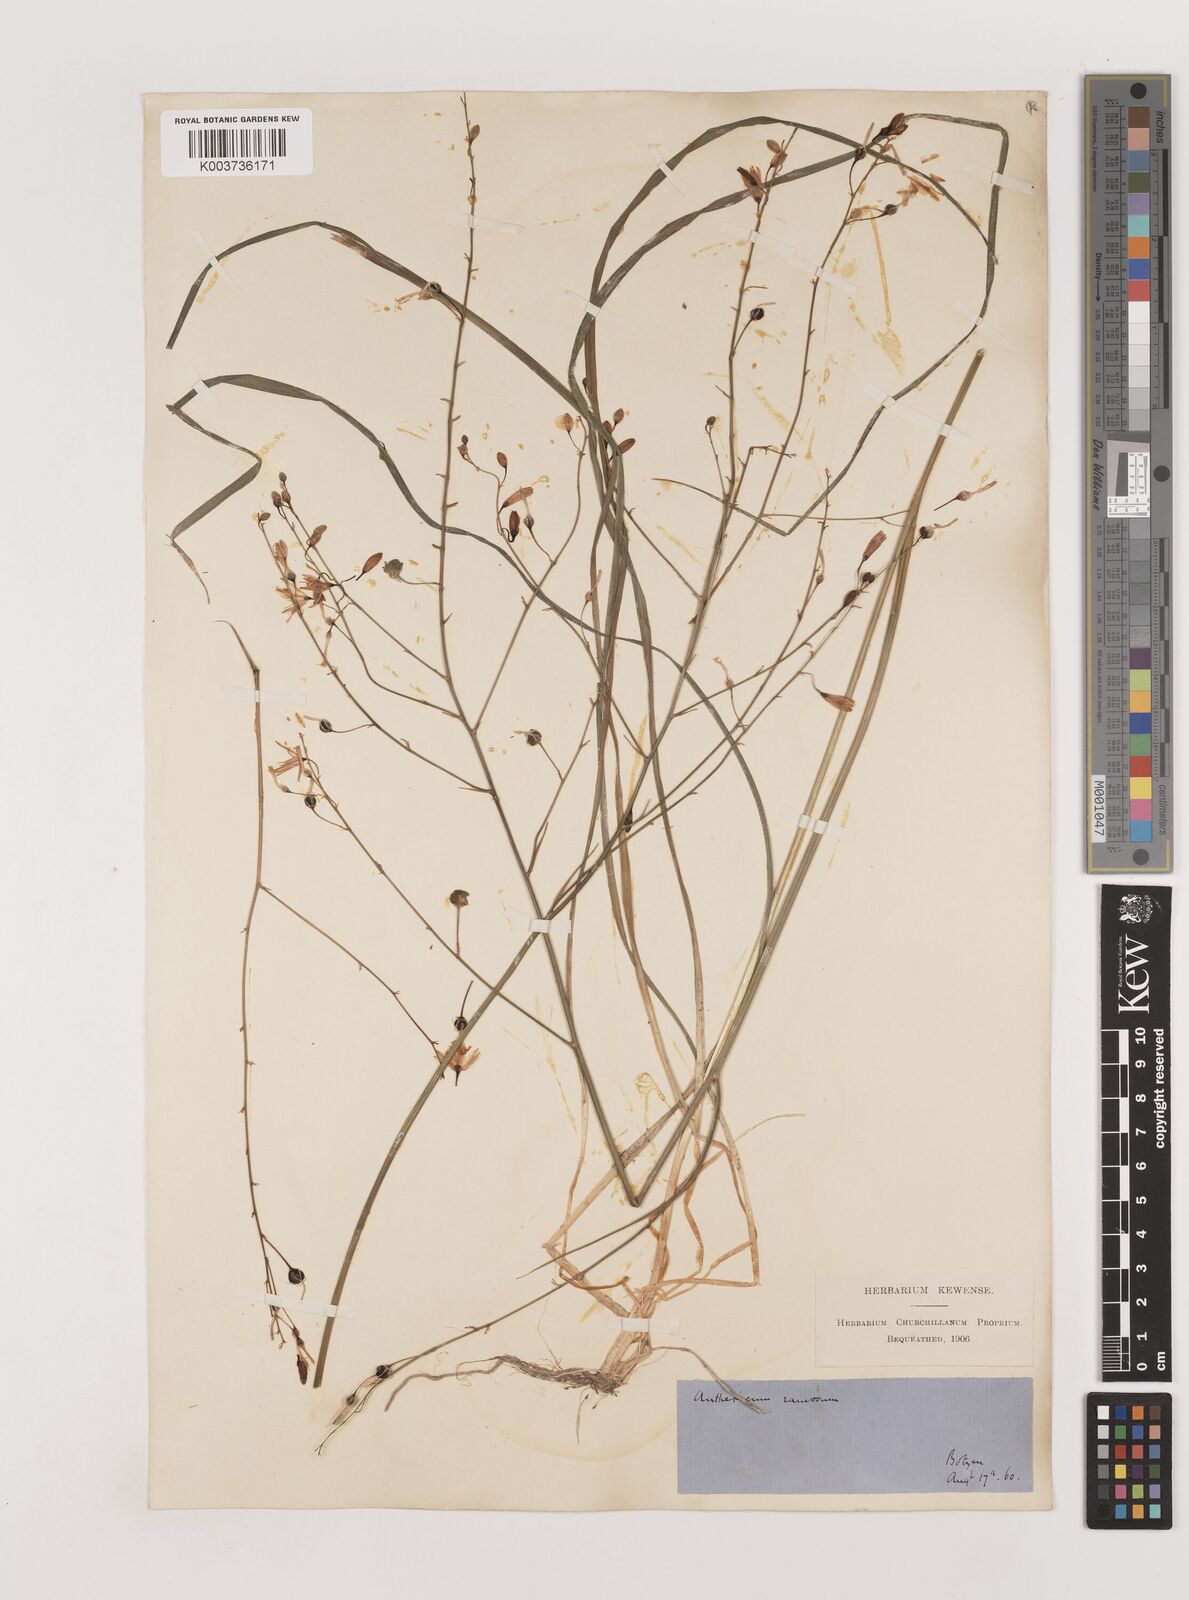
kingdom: Plantae
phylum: Tracheophyta
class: Liliopsida
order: Asparagales
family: Asparagaceae
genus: Anthericum
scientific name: Anthericum ramosum
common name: Branched st. bernard's-lily
